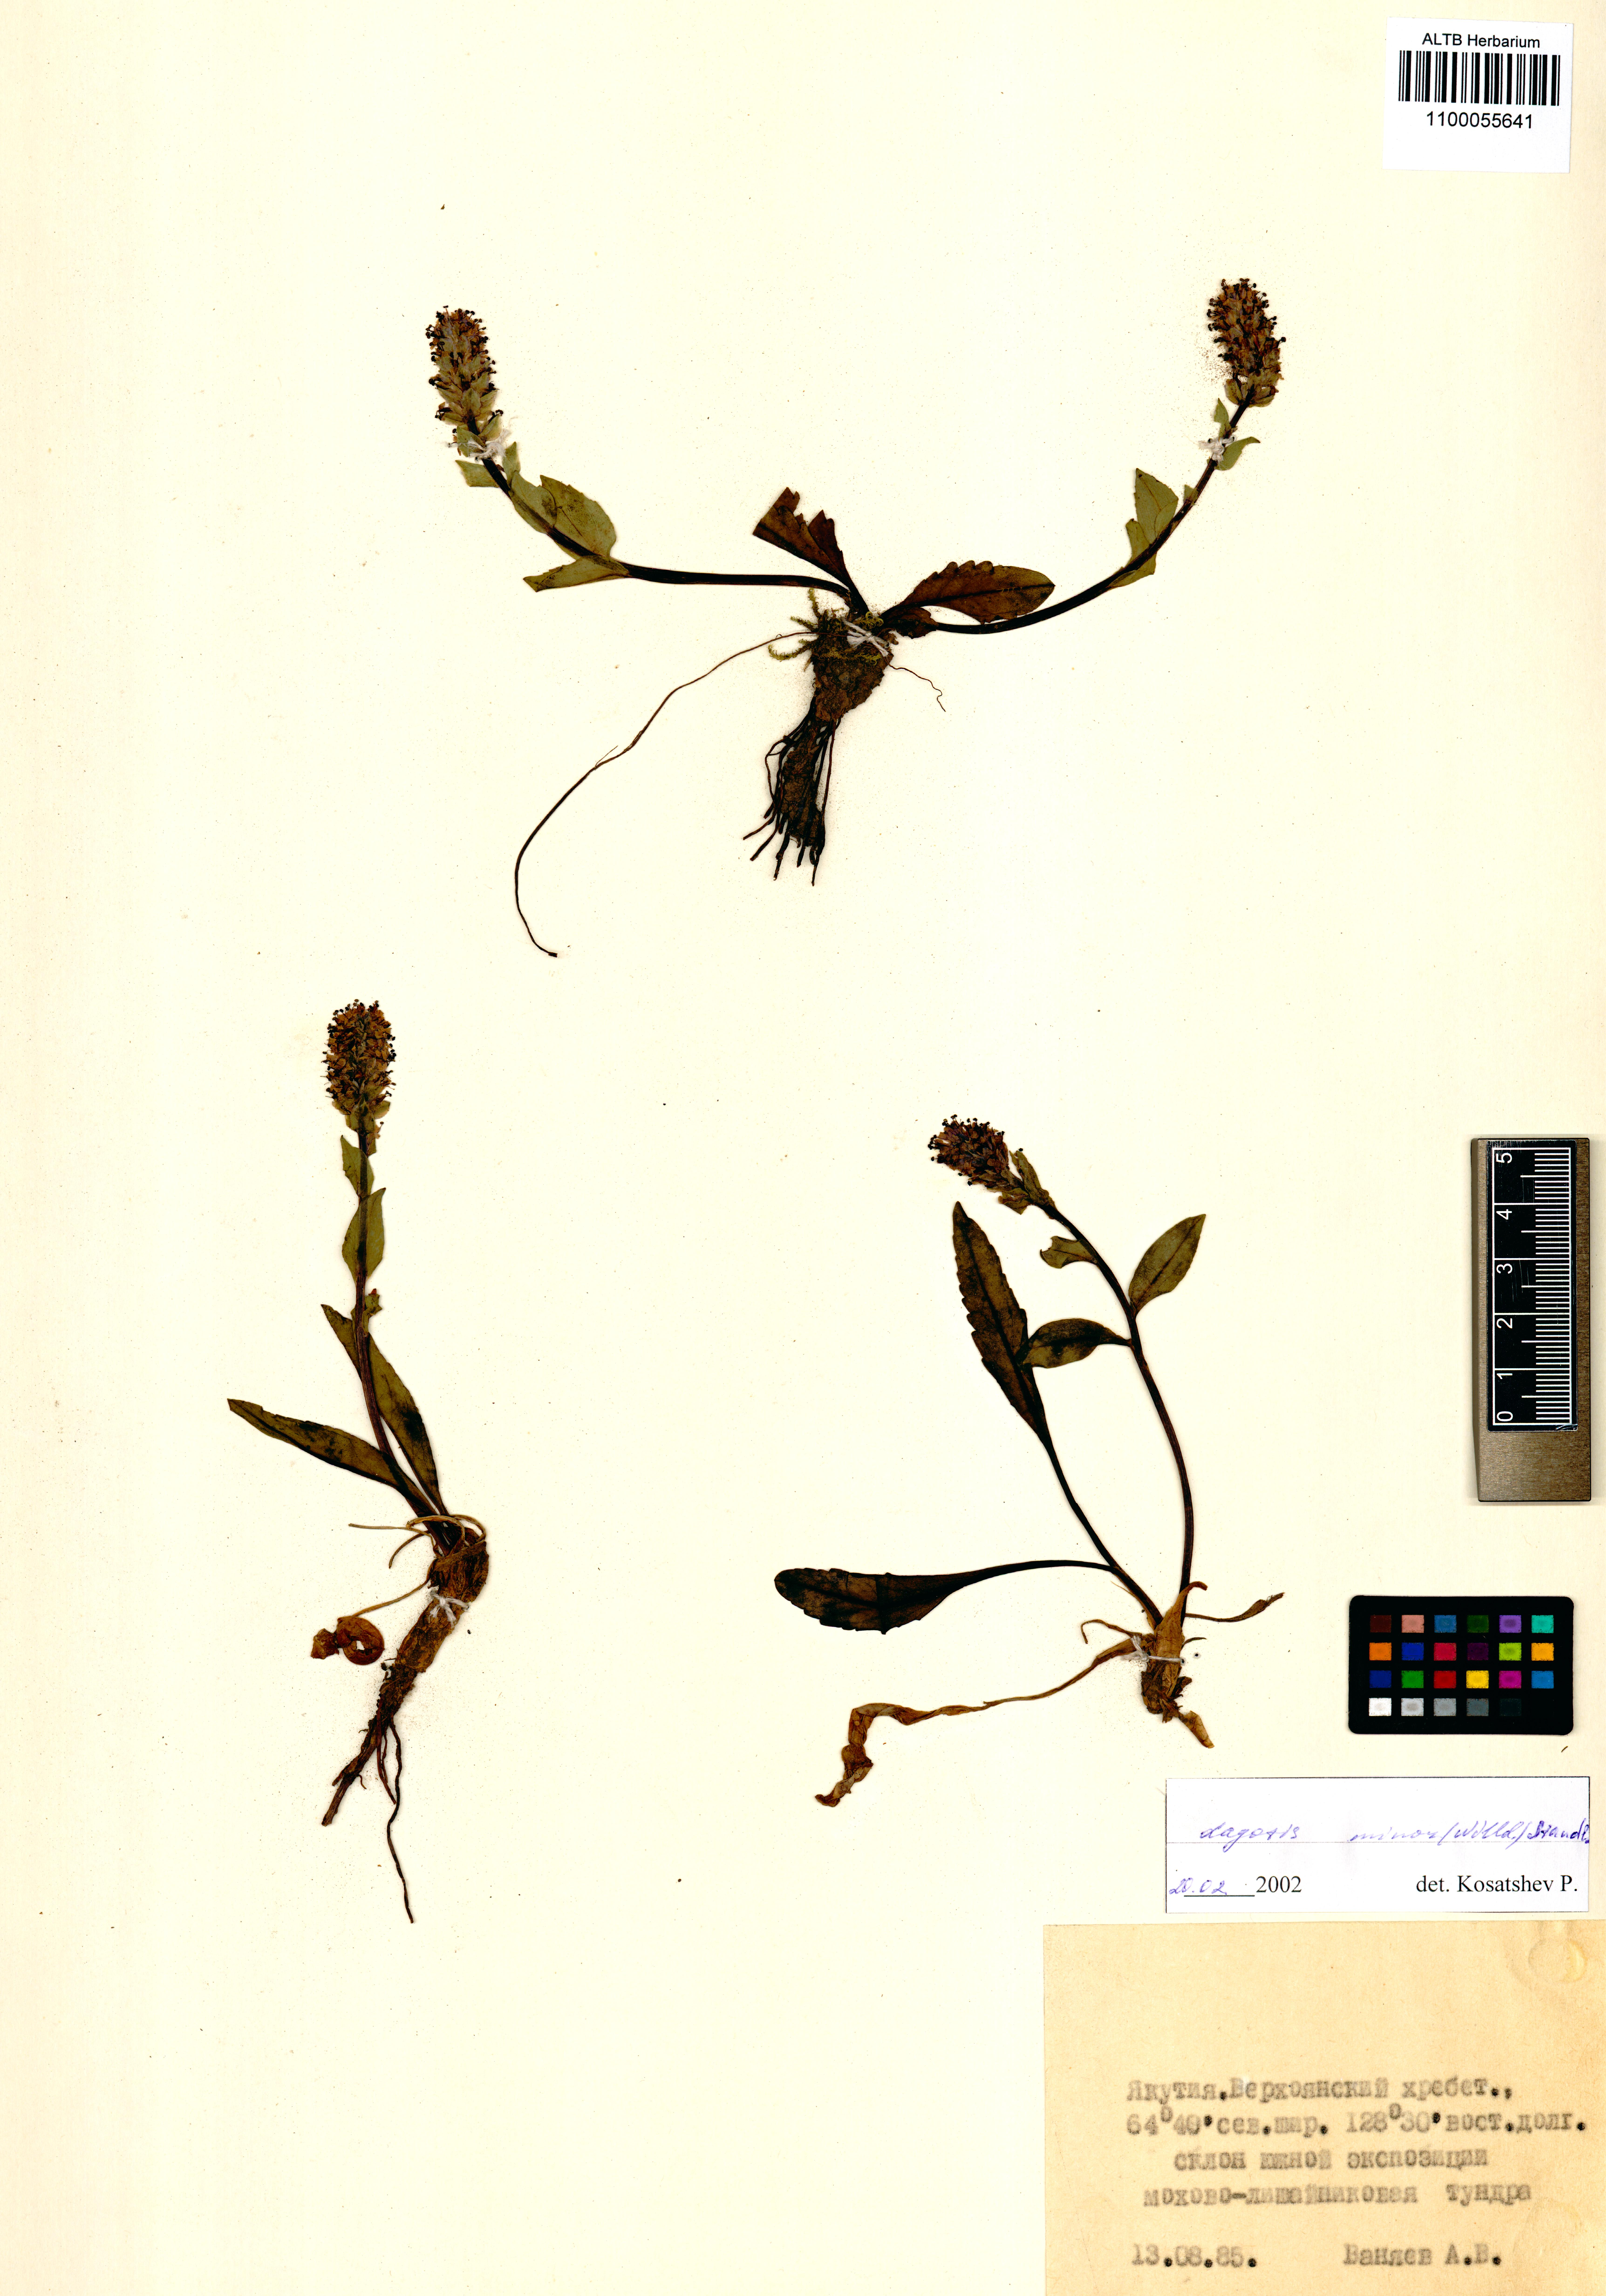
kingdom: Plantae
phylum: Tracheophyta
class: Magnoliopsida
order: Lamiales
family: Plantaginaceae
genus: Lagotis
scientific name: Lagotis glauca
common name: Glaucous weaselsnout
